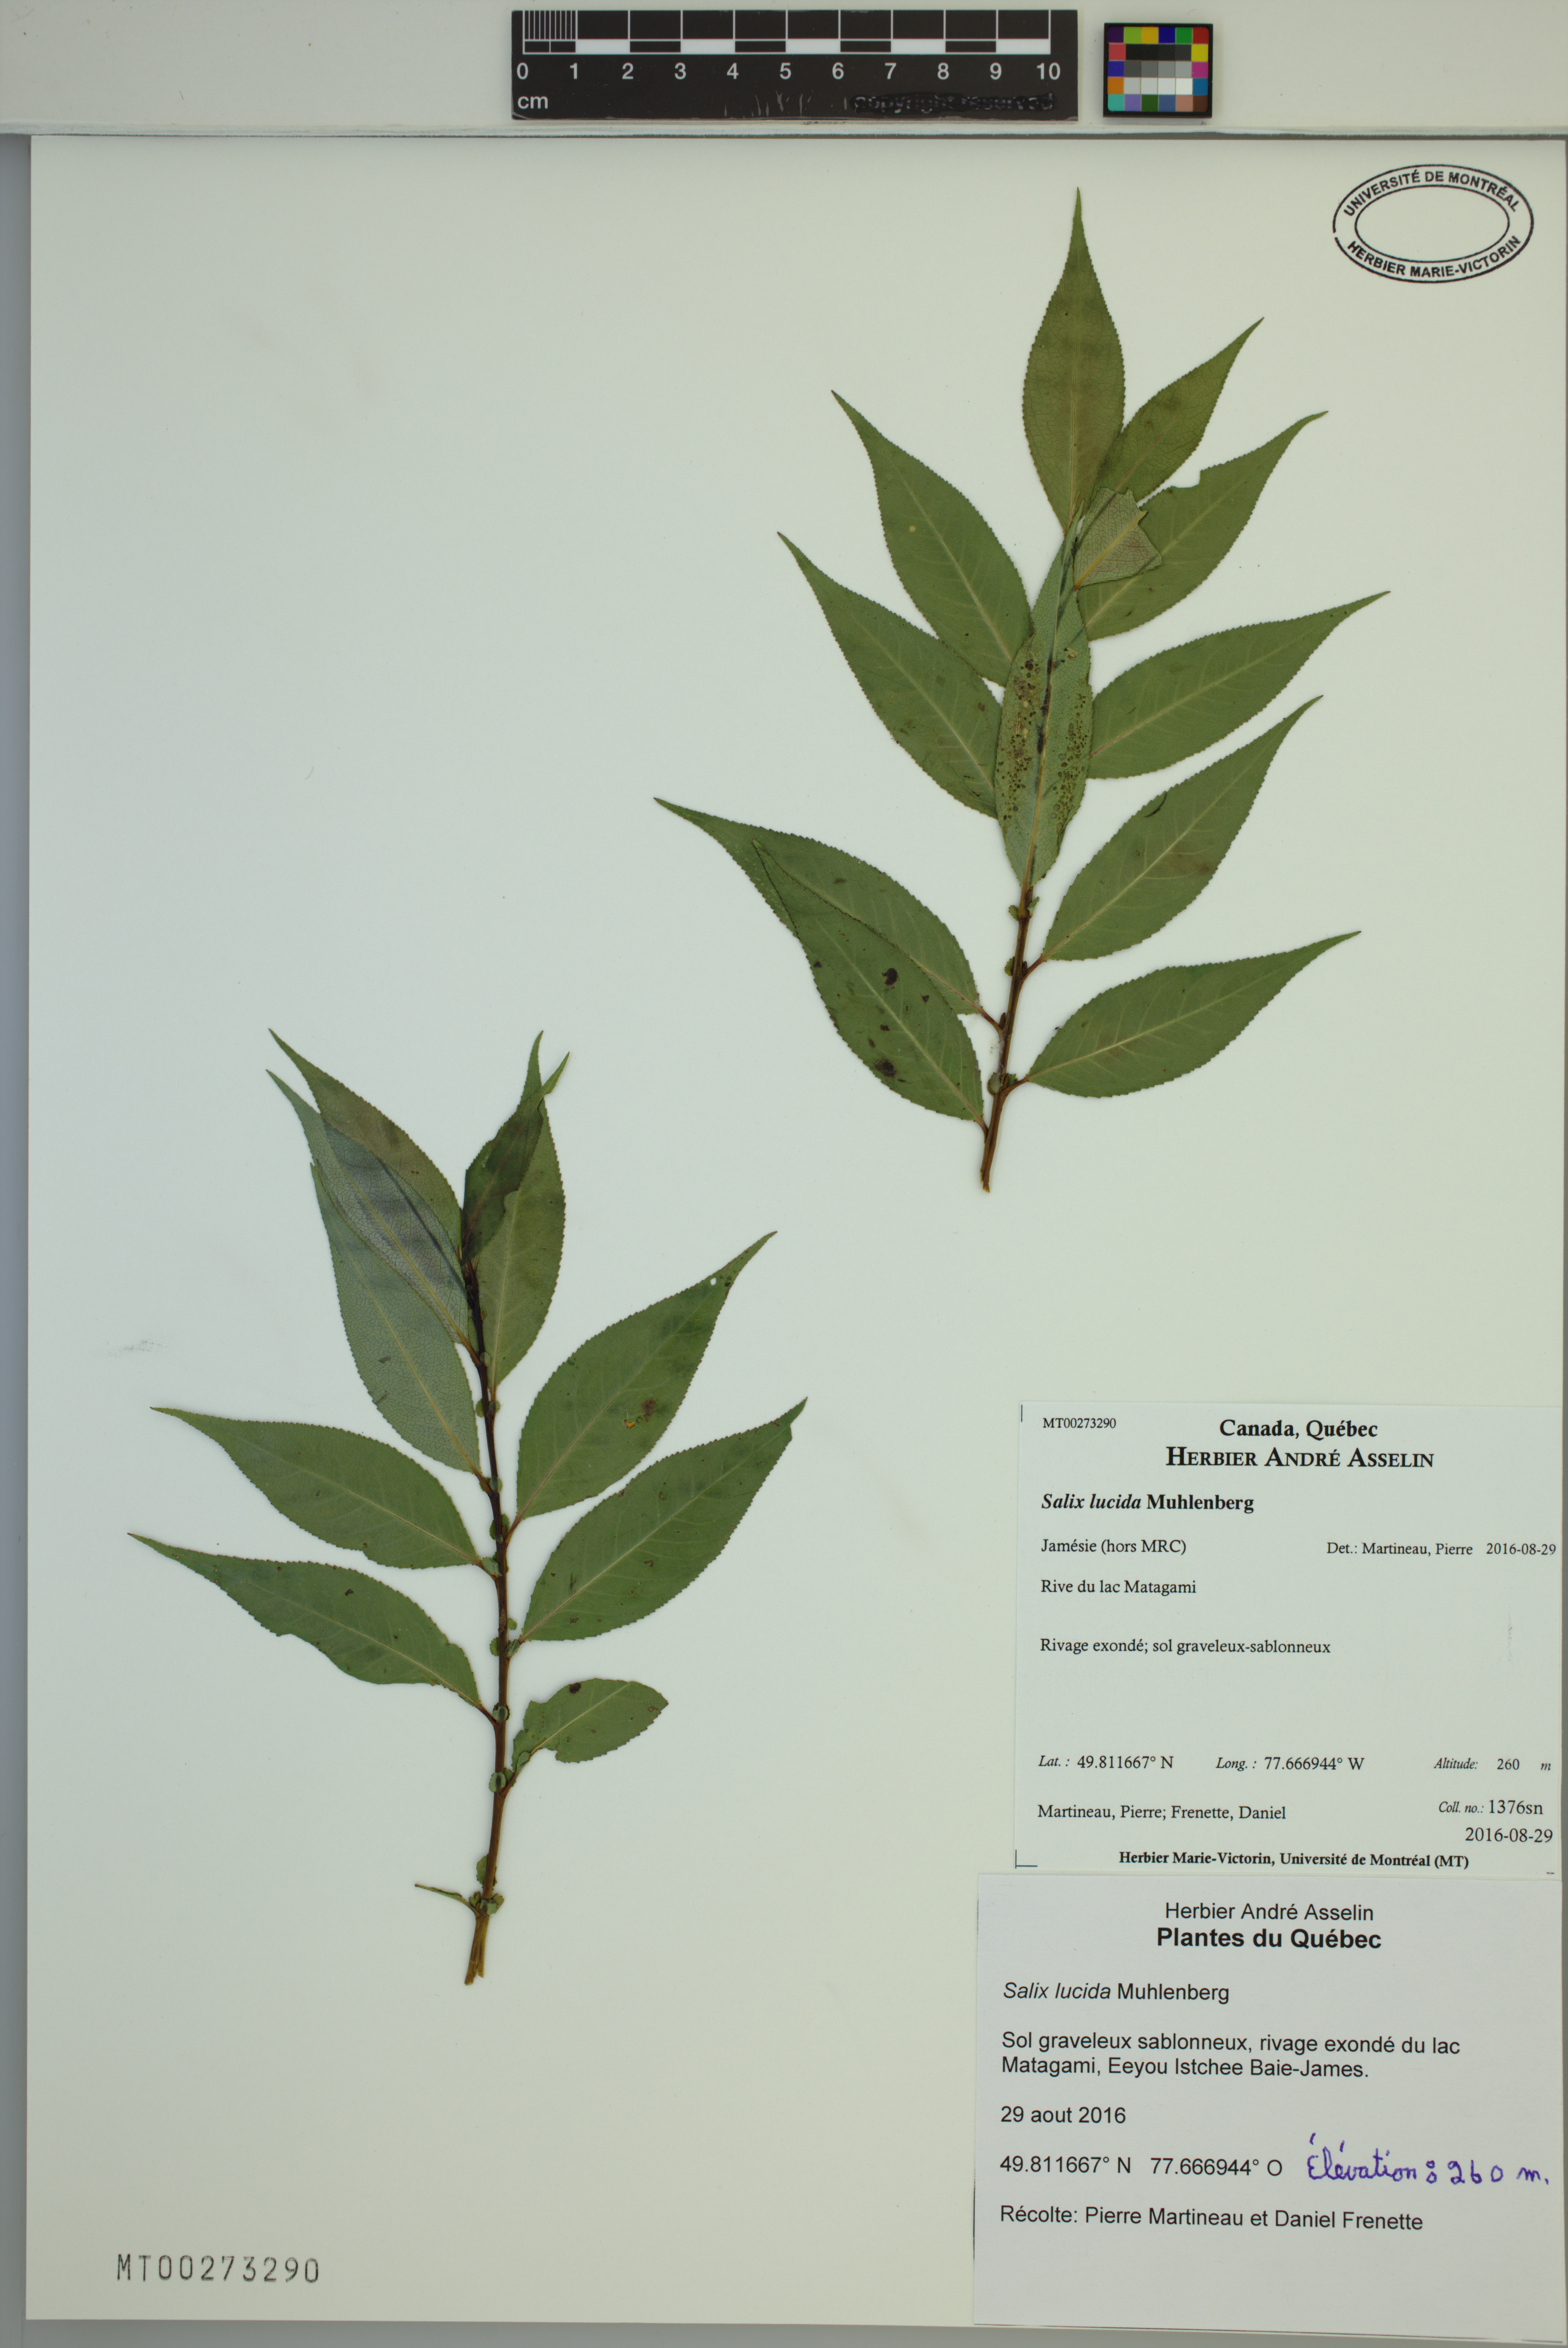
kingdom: Plantae
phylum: Tracheophyta
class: Magnoliopsida
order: Malpighiales
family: Salicaceae
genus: Salix
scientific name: Salix lucida
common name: Shining willow
